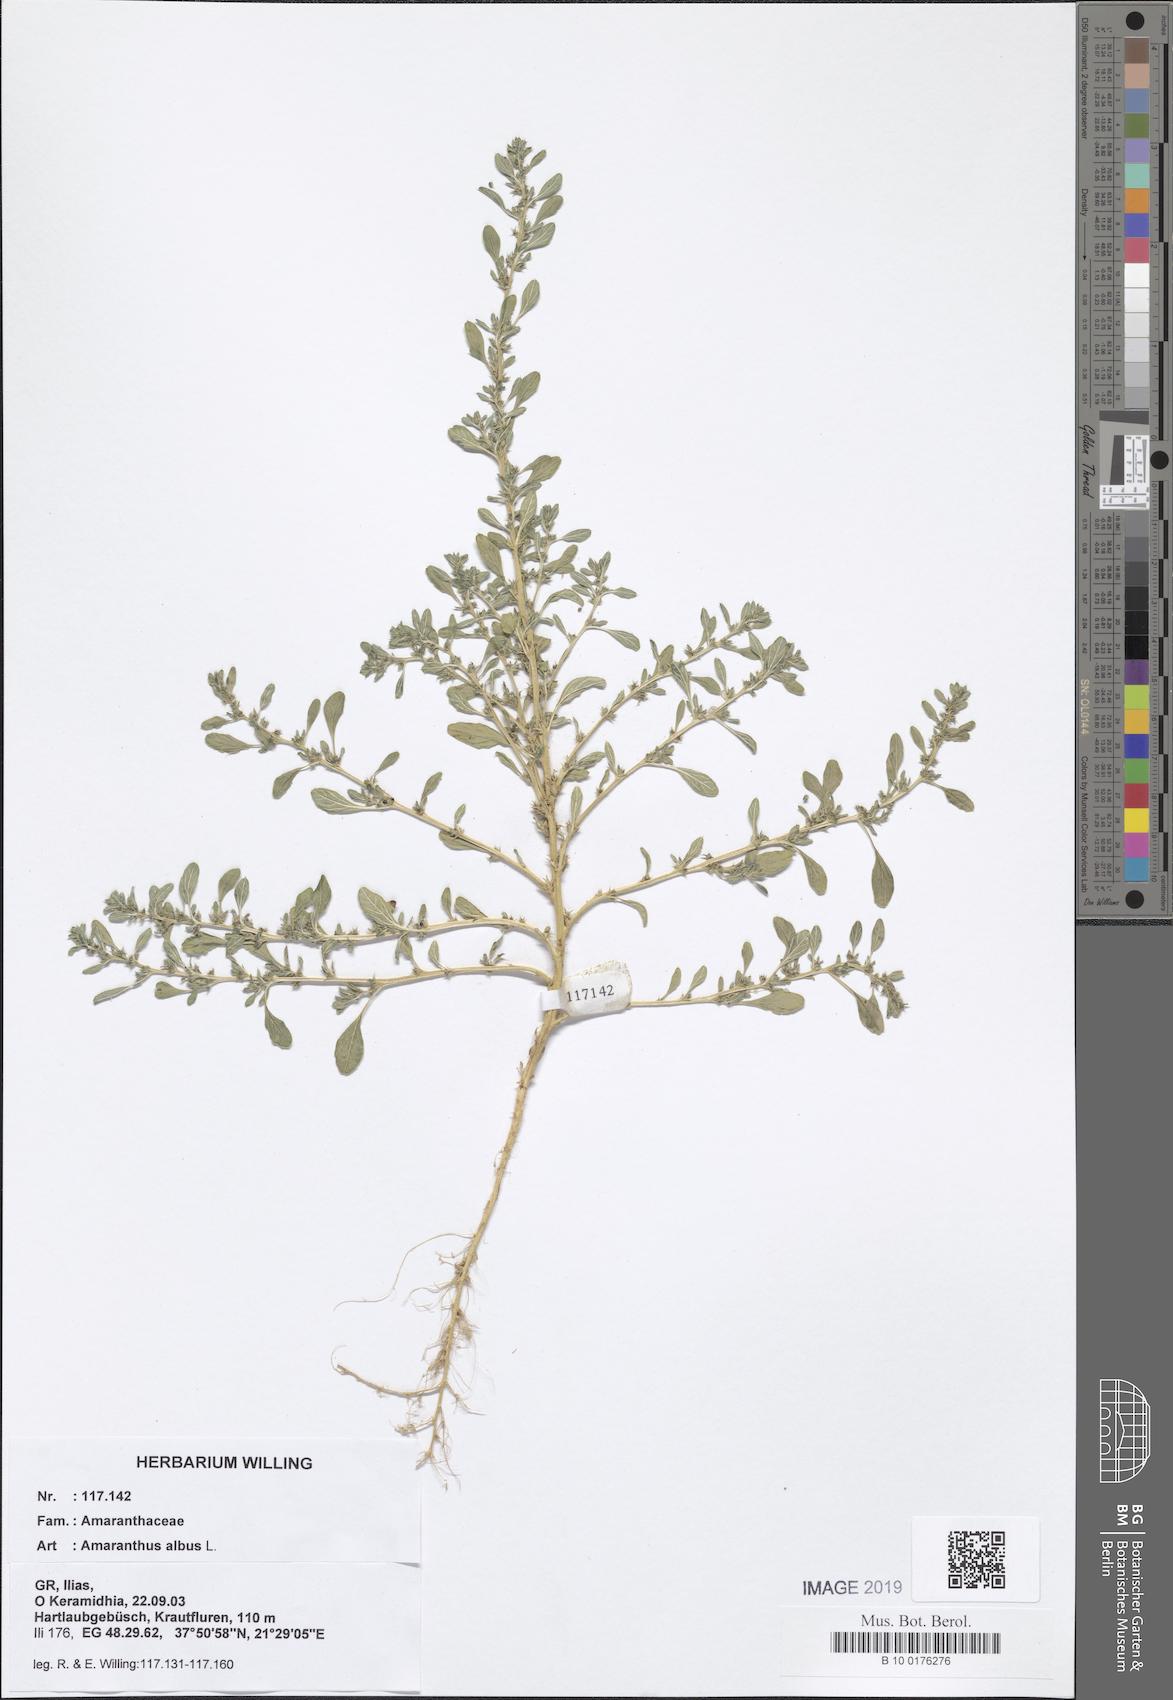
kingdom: Plantae
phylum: Tracheophyta
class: Magnoliopsida
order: Caryophyllales
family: Amaranthaceae
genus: Amaranthus
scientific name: Amaranthus albus
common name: White pigweed
